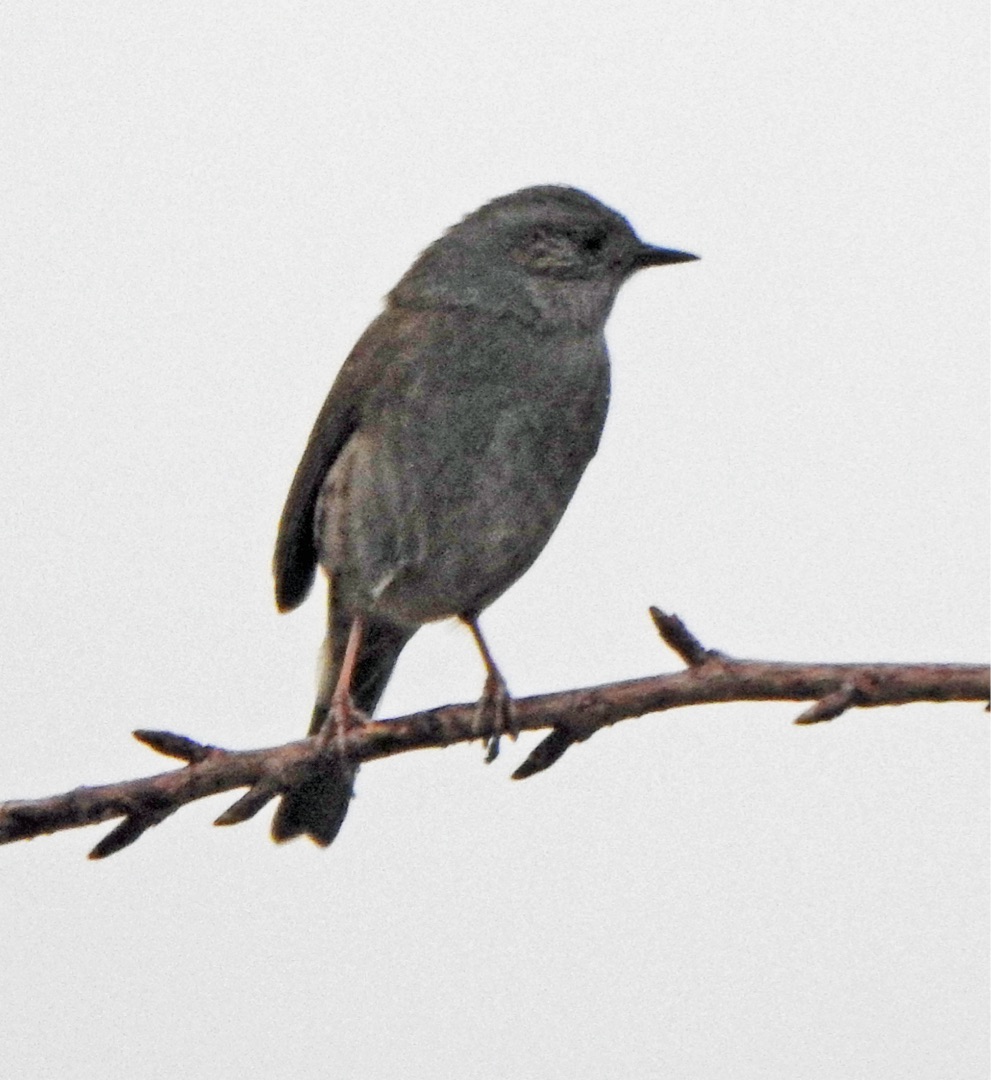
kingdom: Animalia
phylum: Chordata
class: Aves
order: Passeriformes
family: Prunellidae
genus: Prunella
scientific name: Prunella modularis
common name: Jernspurv
